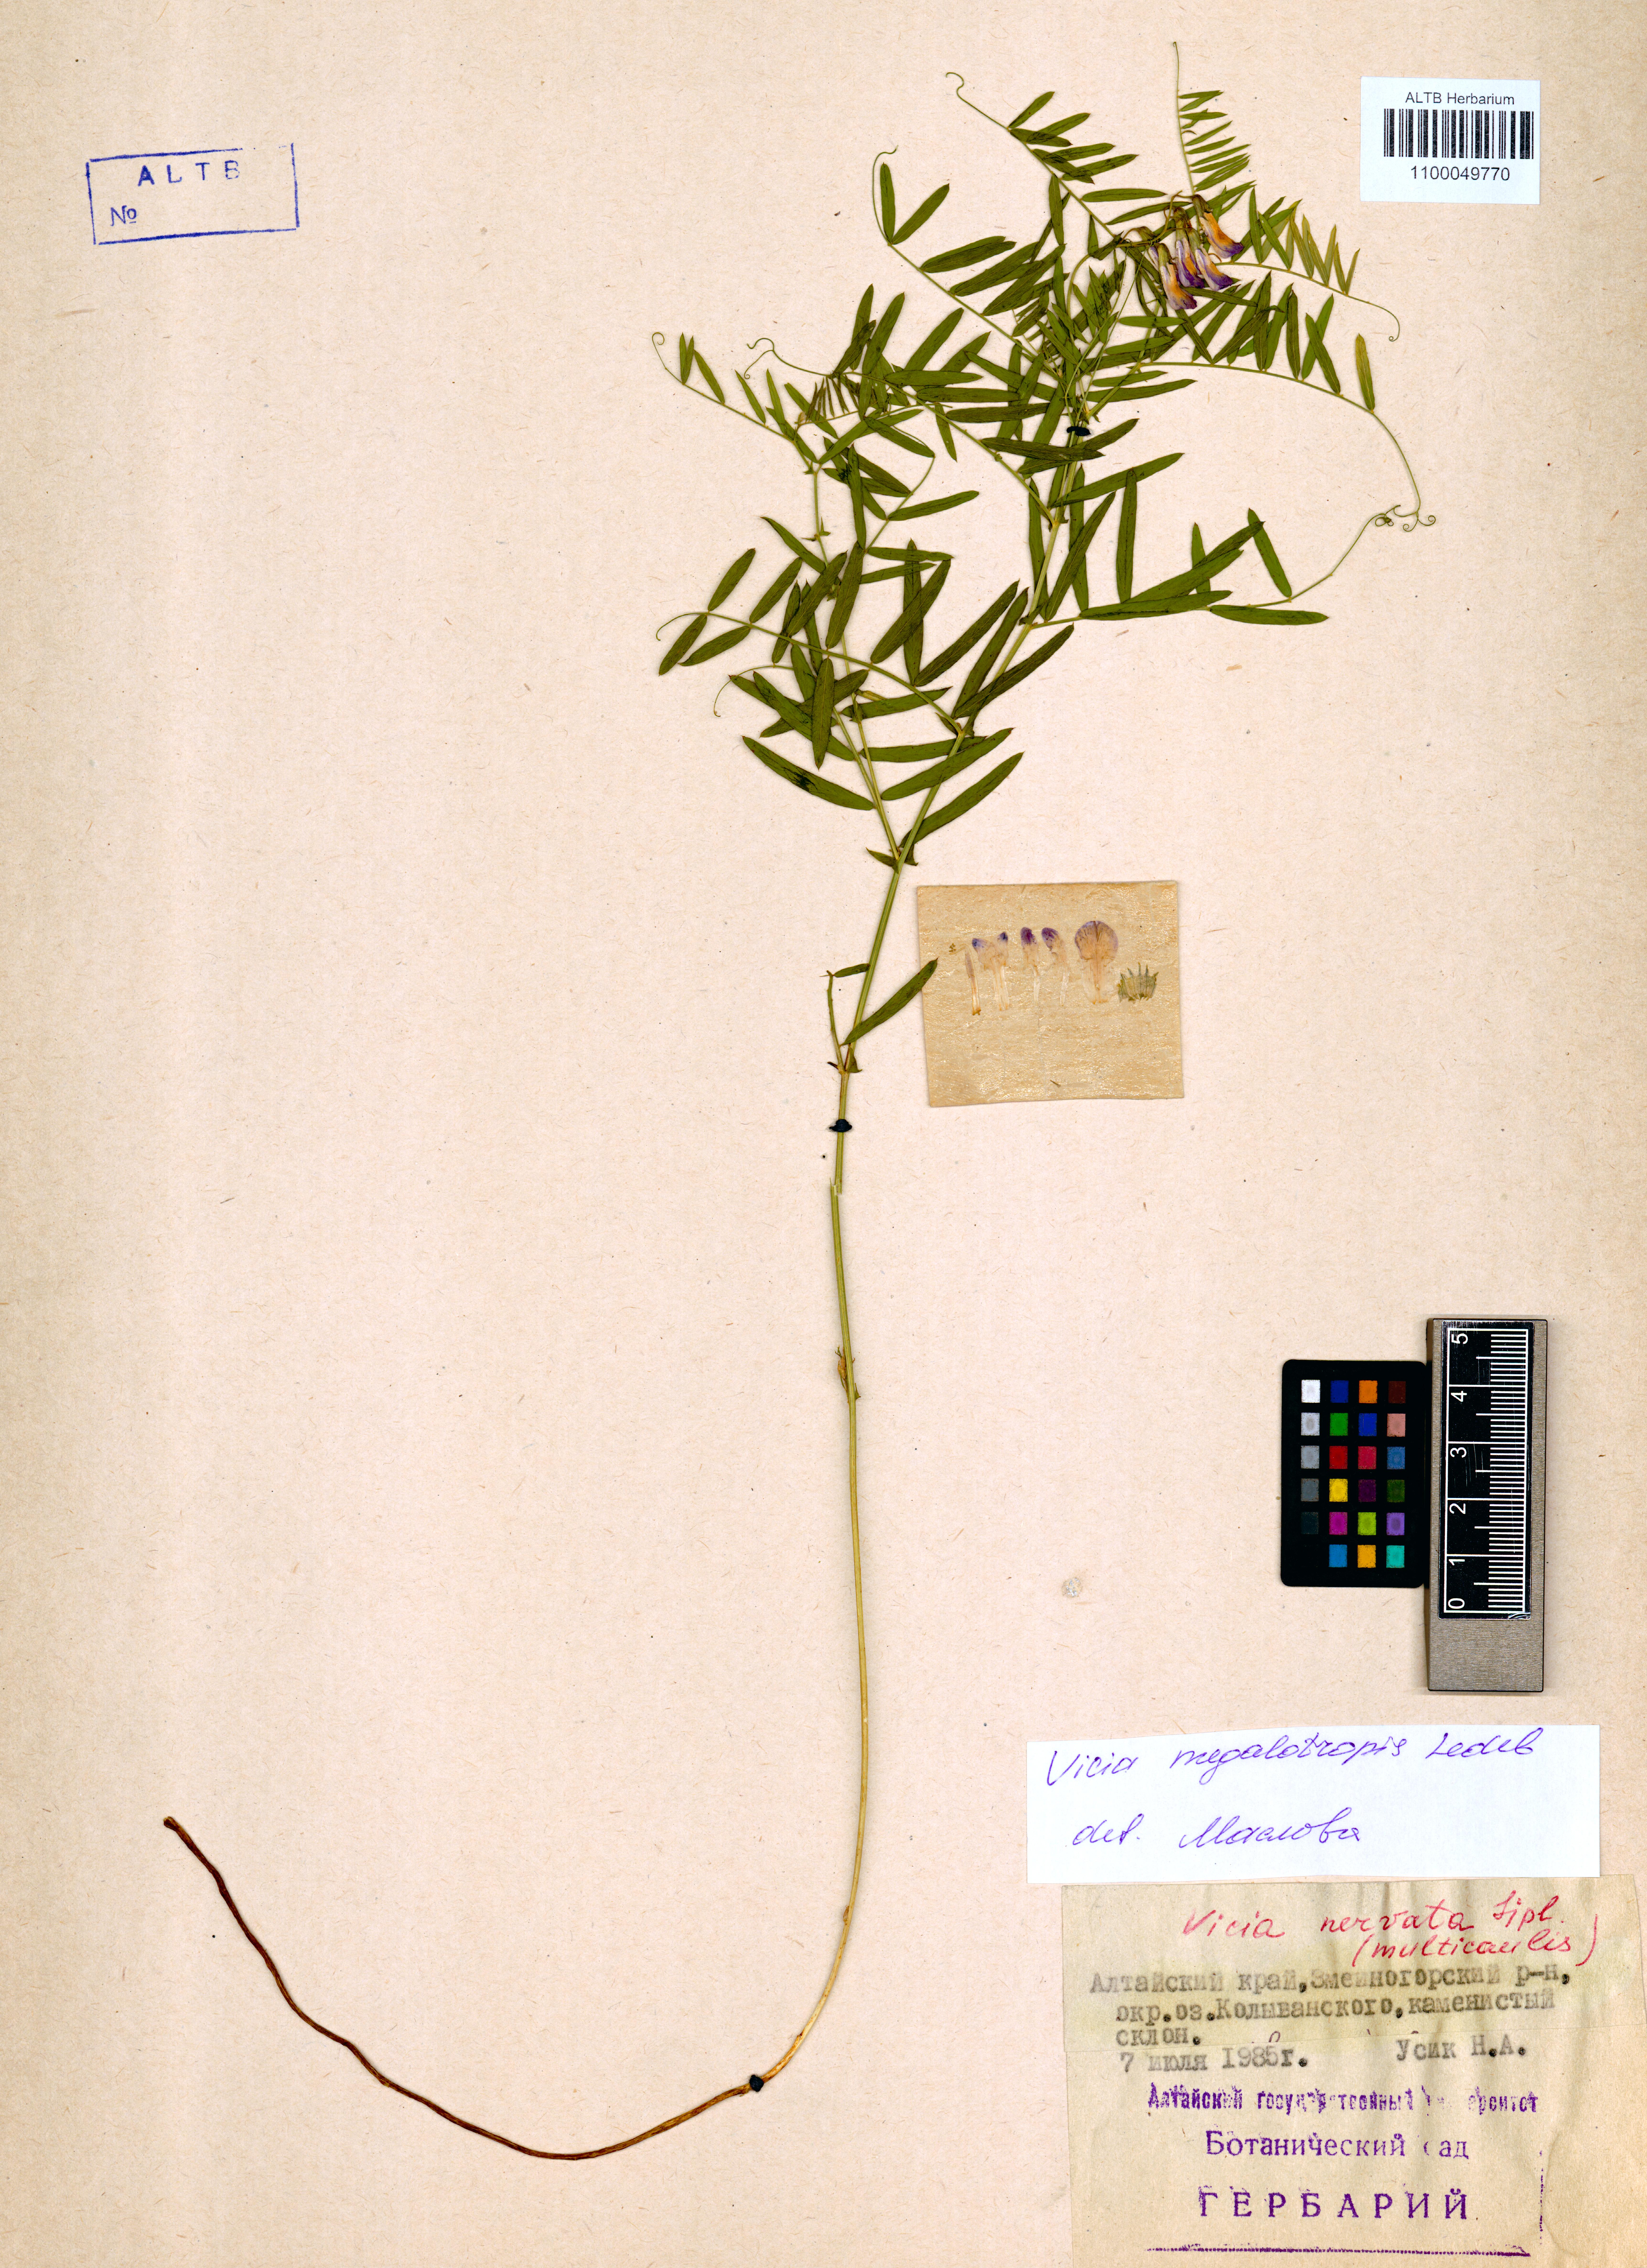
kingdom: Plantae
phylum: Tracheophyta
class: Magnoliopsida
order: Fabales
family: Fabaceae
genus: Vicia
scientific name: Vicia megalotropis
